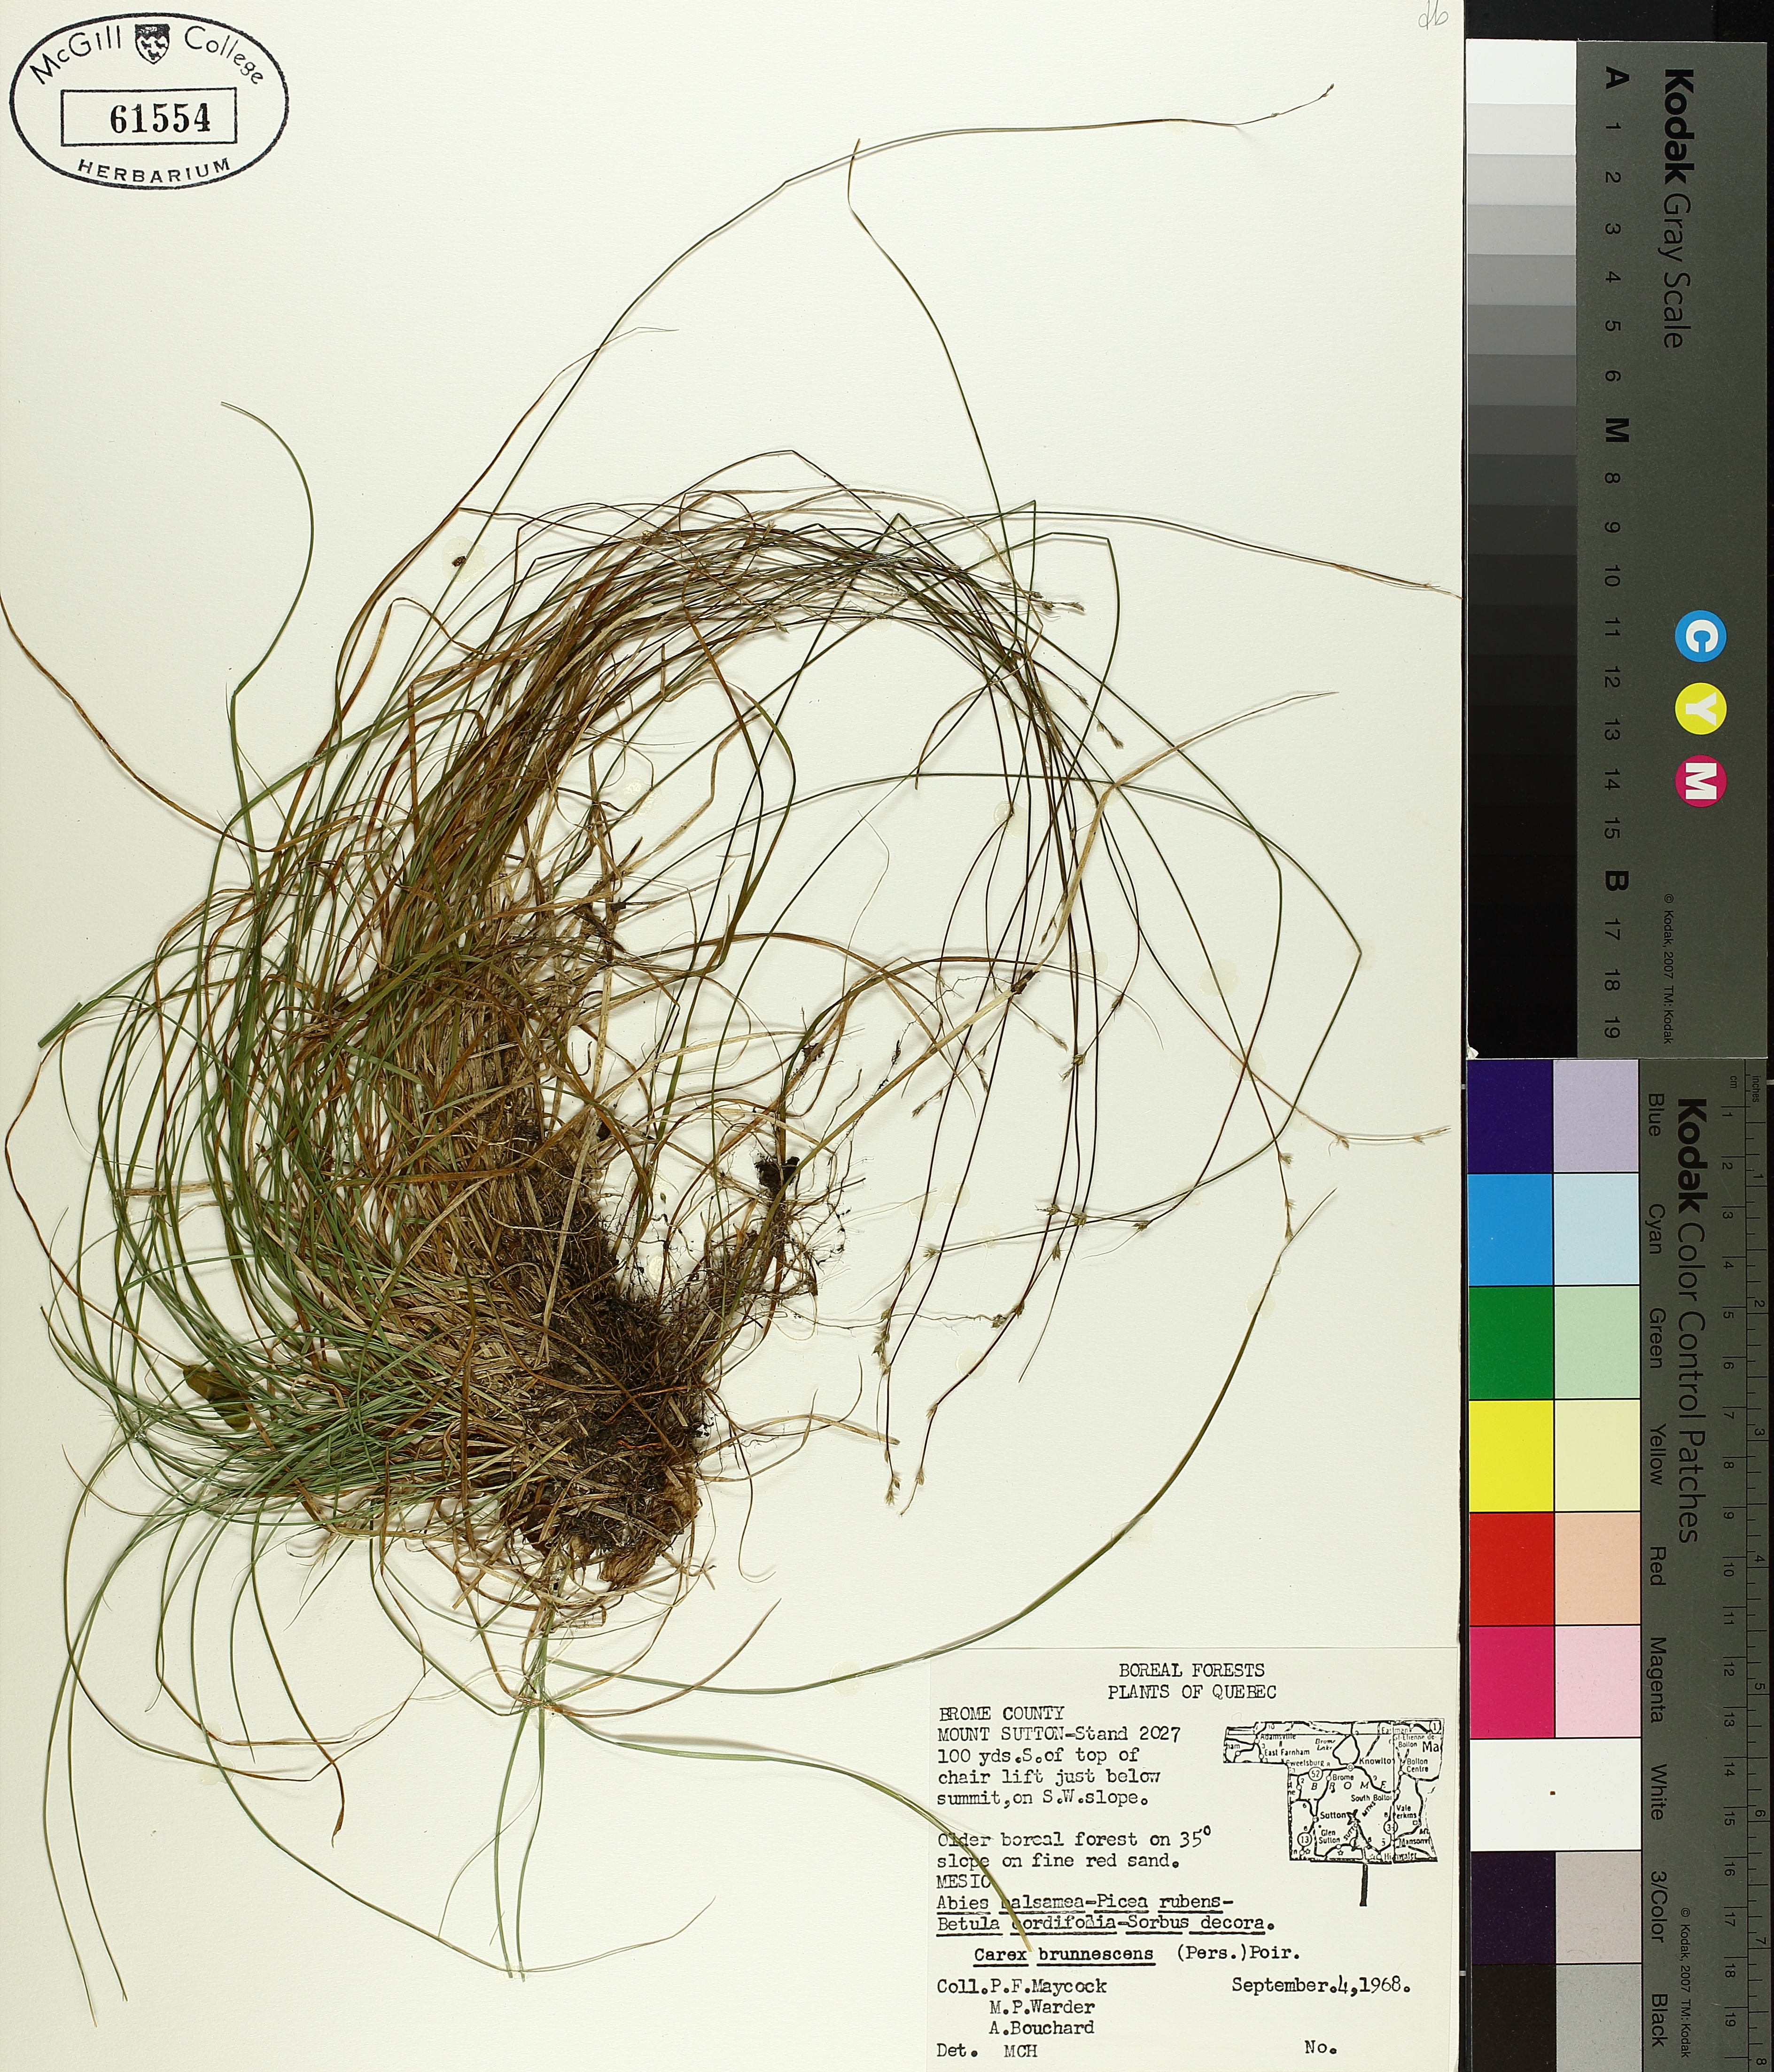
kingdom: Plantae
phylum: Tracheophyta
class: Liliopsida
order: Poales
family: Cyperaceae
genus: Carex
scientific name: Carex brunnescens
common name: Brown sedge
